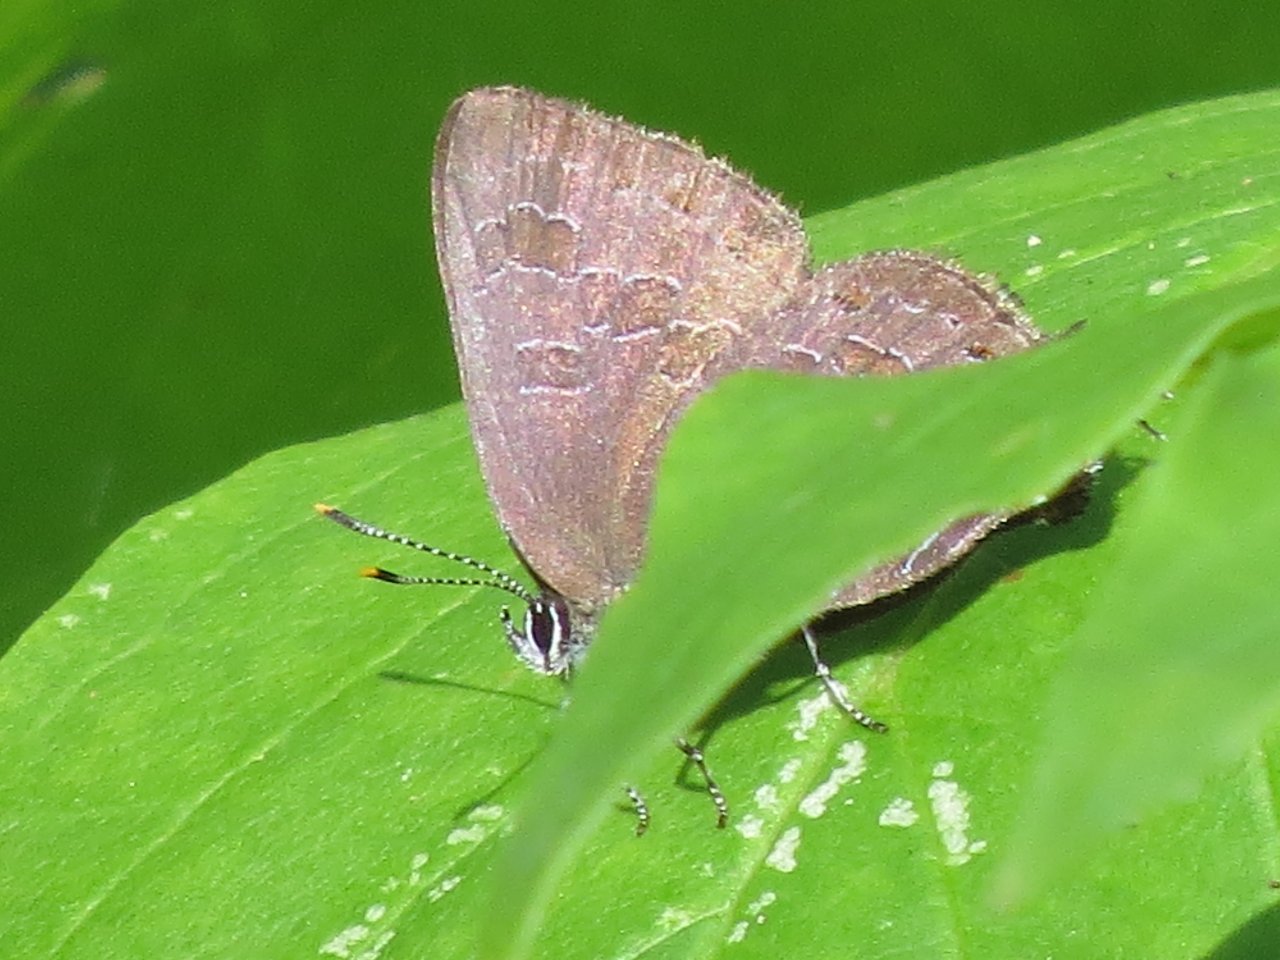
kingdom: Animalia
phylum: Arthropoda
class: Insecta
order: Lepidoptera
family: Lycaenidae
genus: Satyrium
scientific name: Satyrium liparops
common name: Striped Hairstreak
